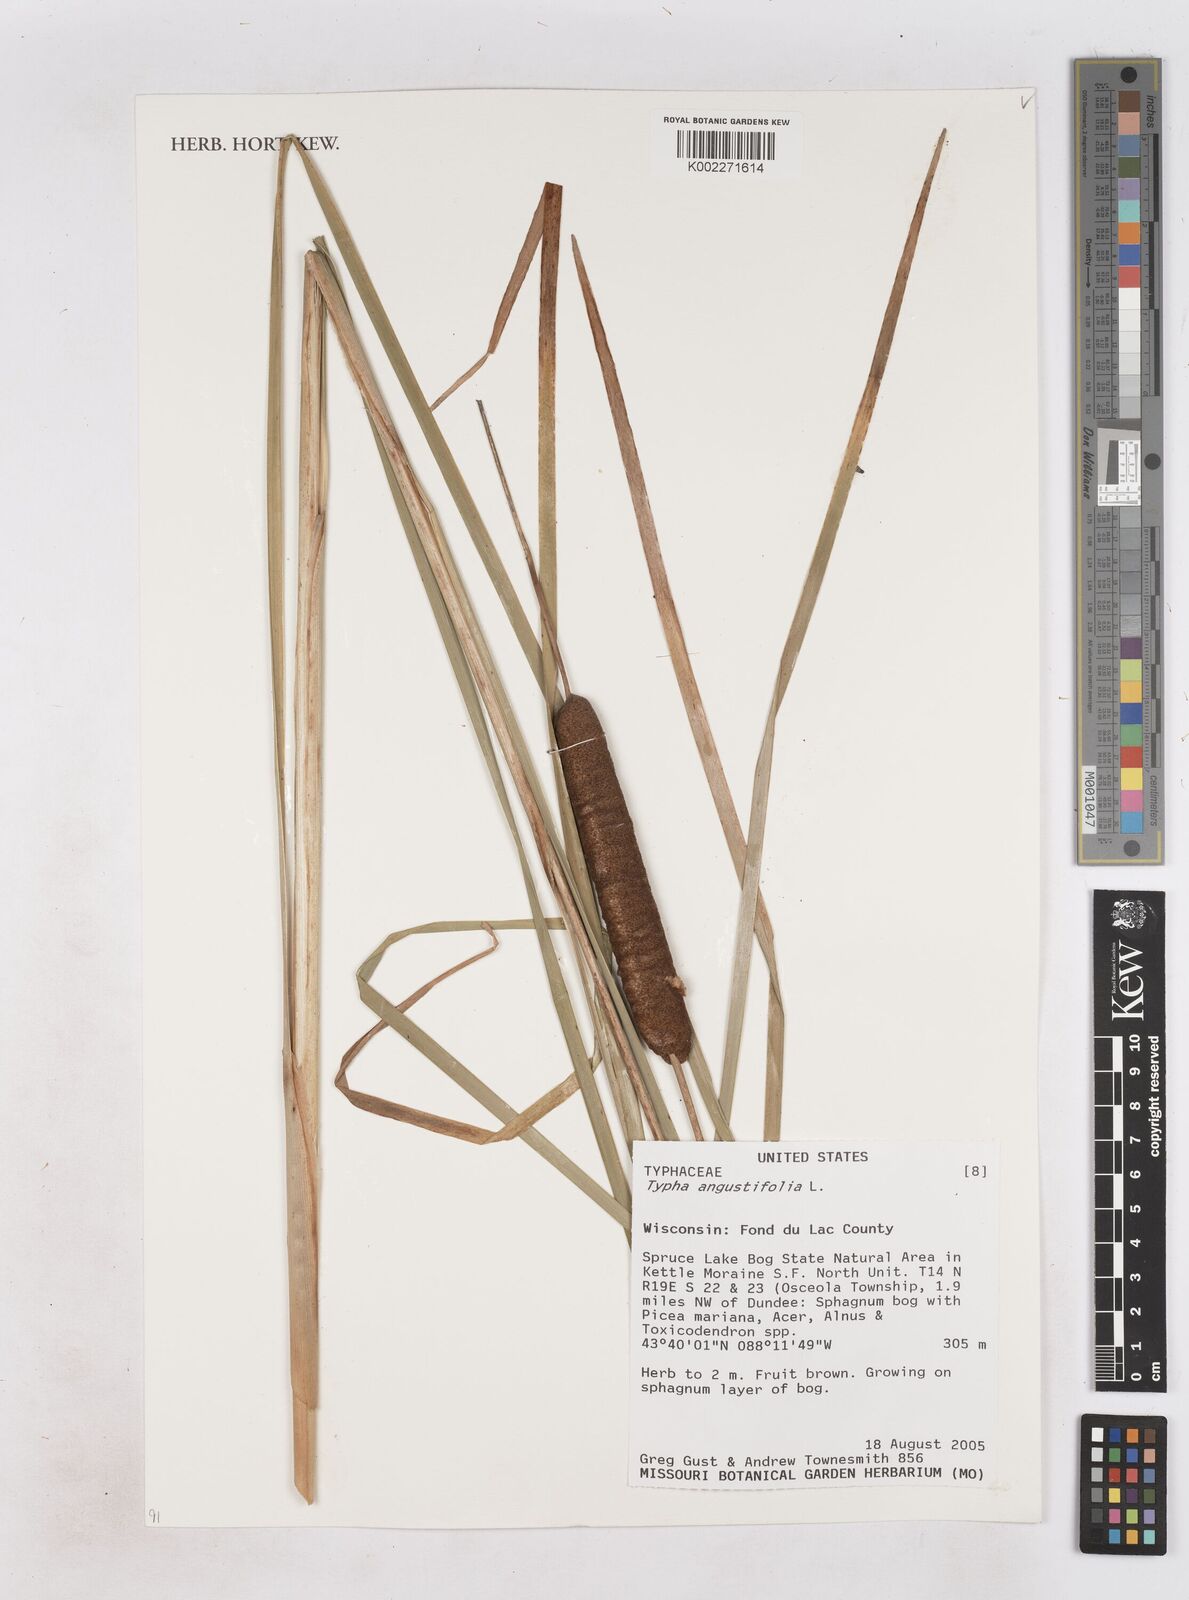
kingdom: Plantae
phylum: Tracheophyta
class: Liliopsida
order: Poales
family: Typhaceae
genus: Typha
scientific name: Typha angustifolia
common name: Lesser bulrush
